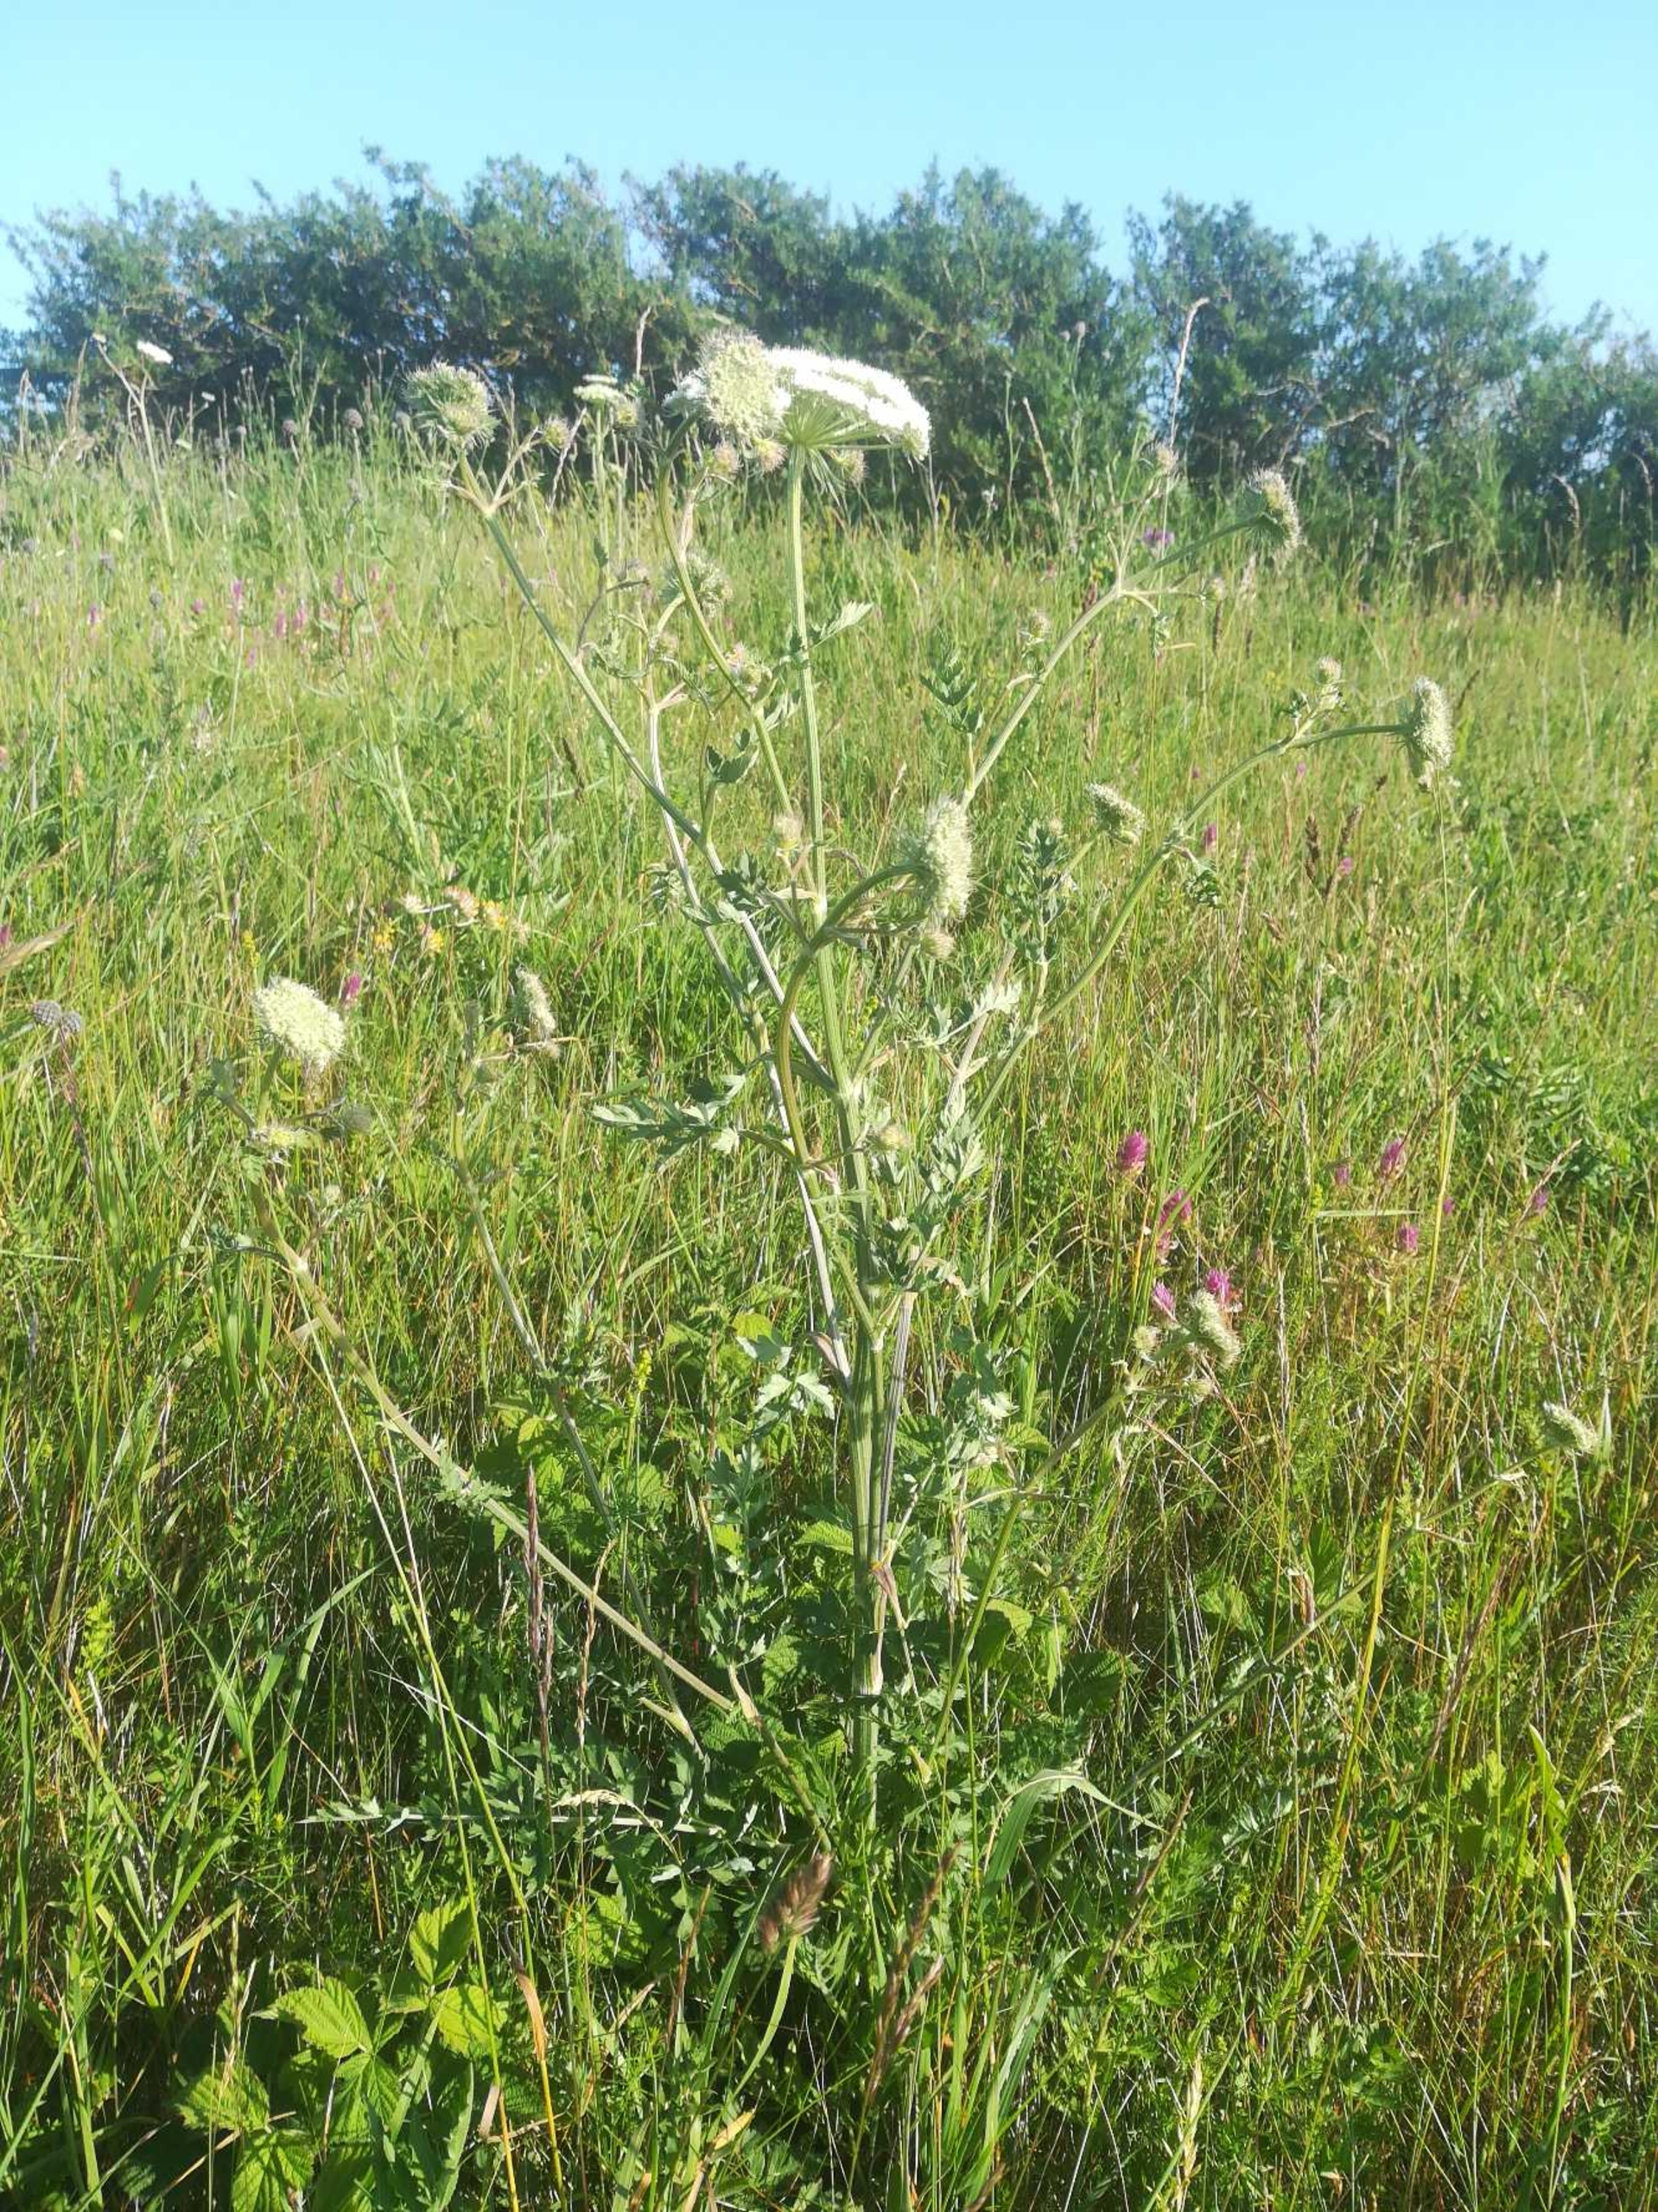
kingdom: Plantae
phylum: Tracheophyta
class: Magnoliopsida
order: Apiales
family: Apiaceae
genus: Seseli
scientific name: Seseli libanotis
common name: Hjorterod
